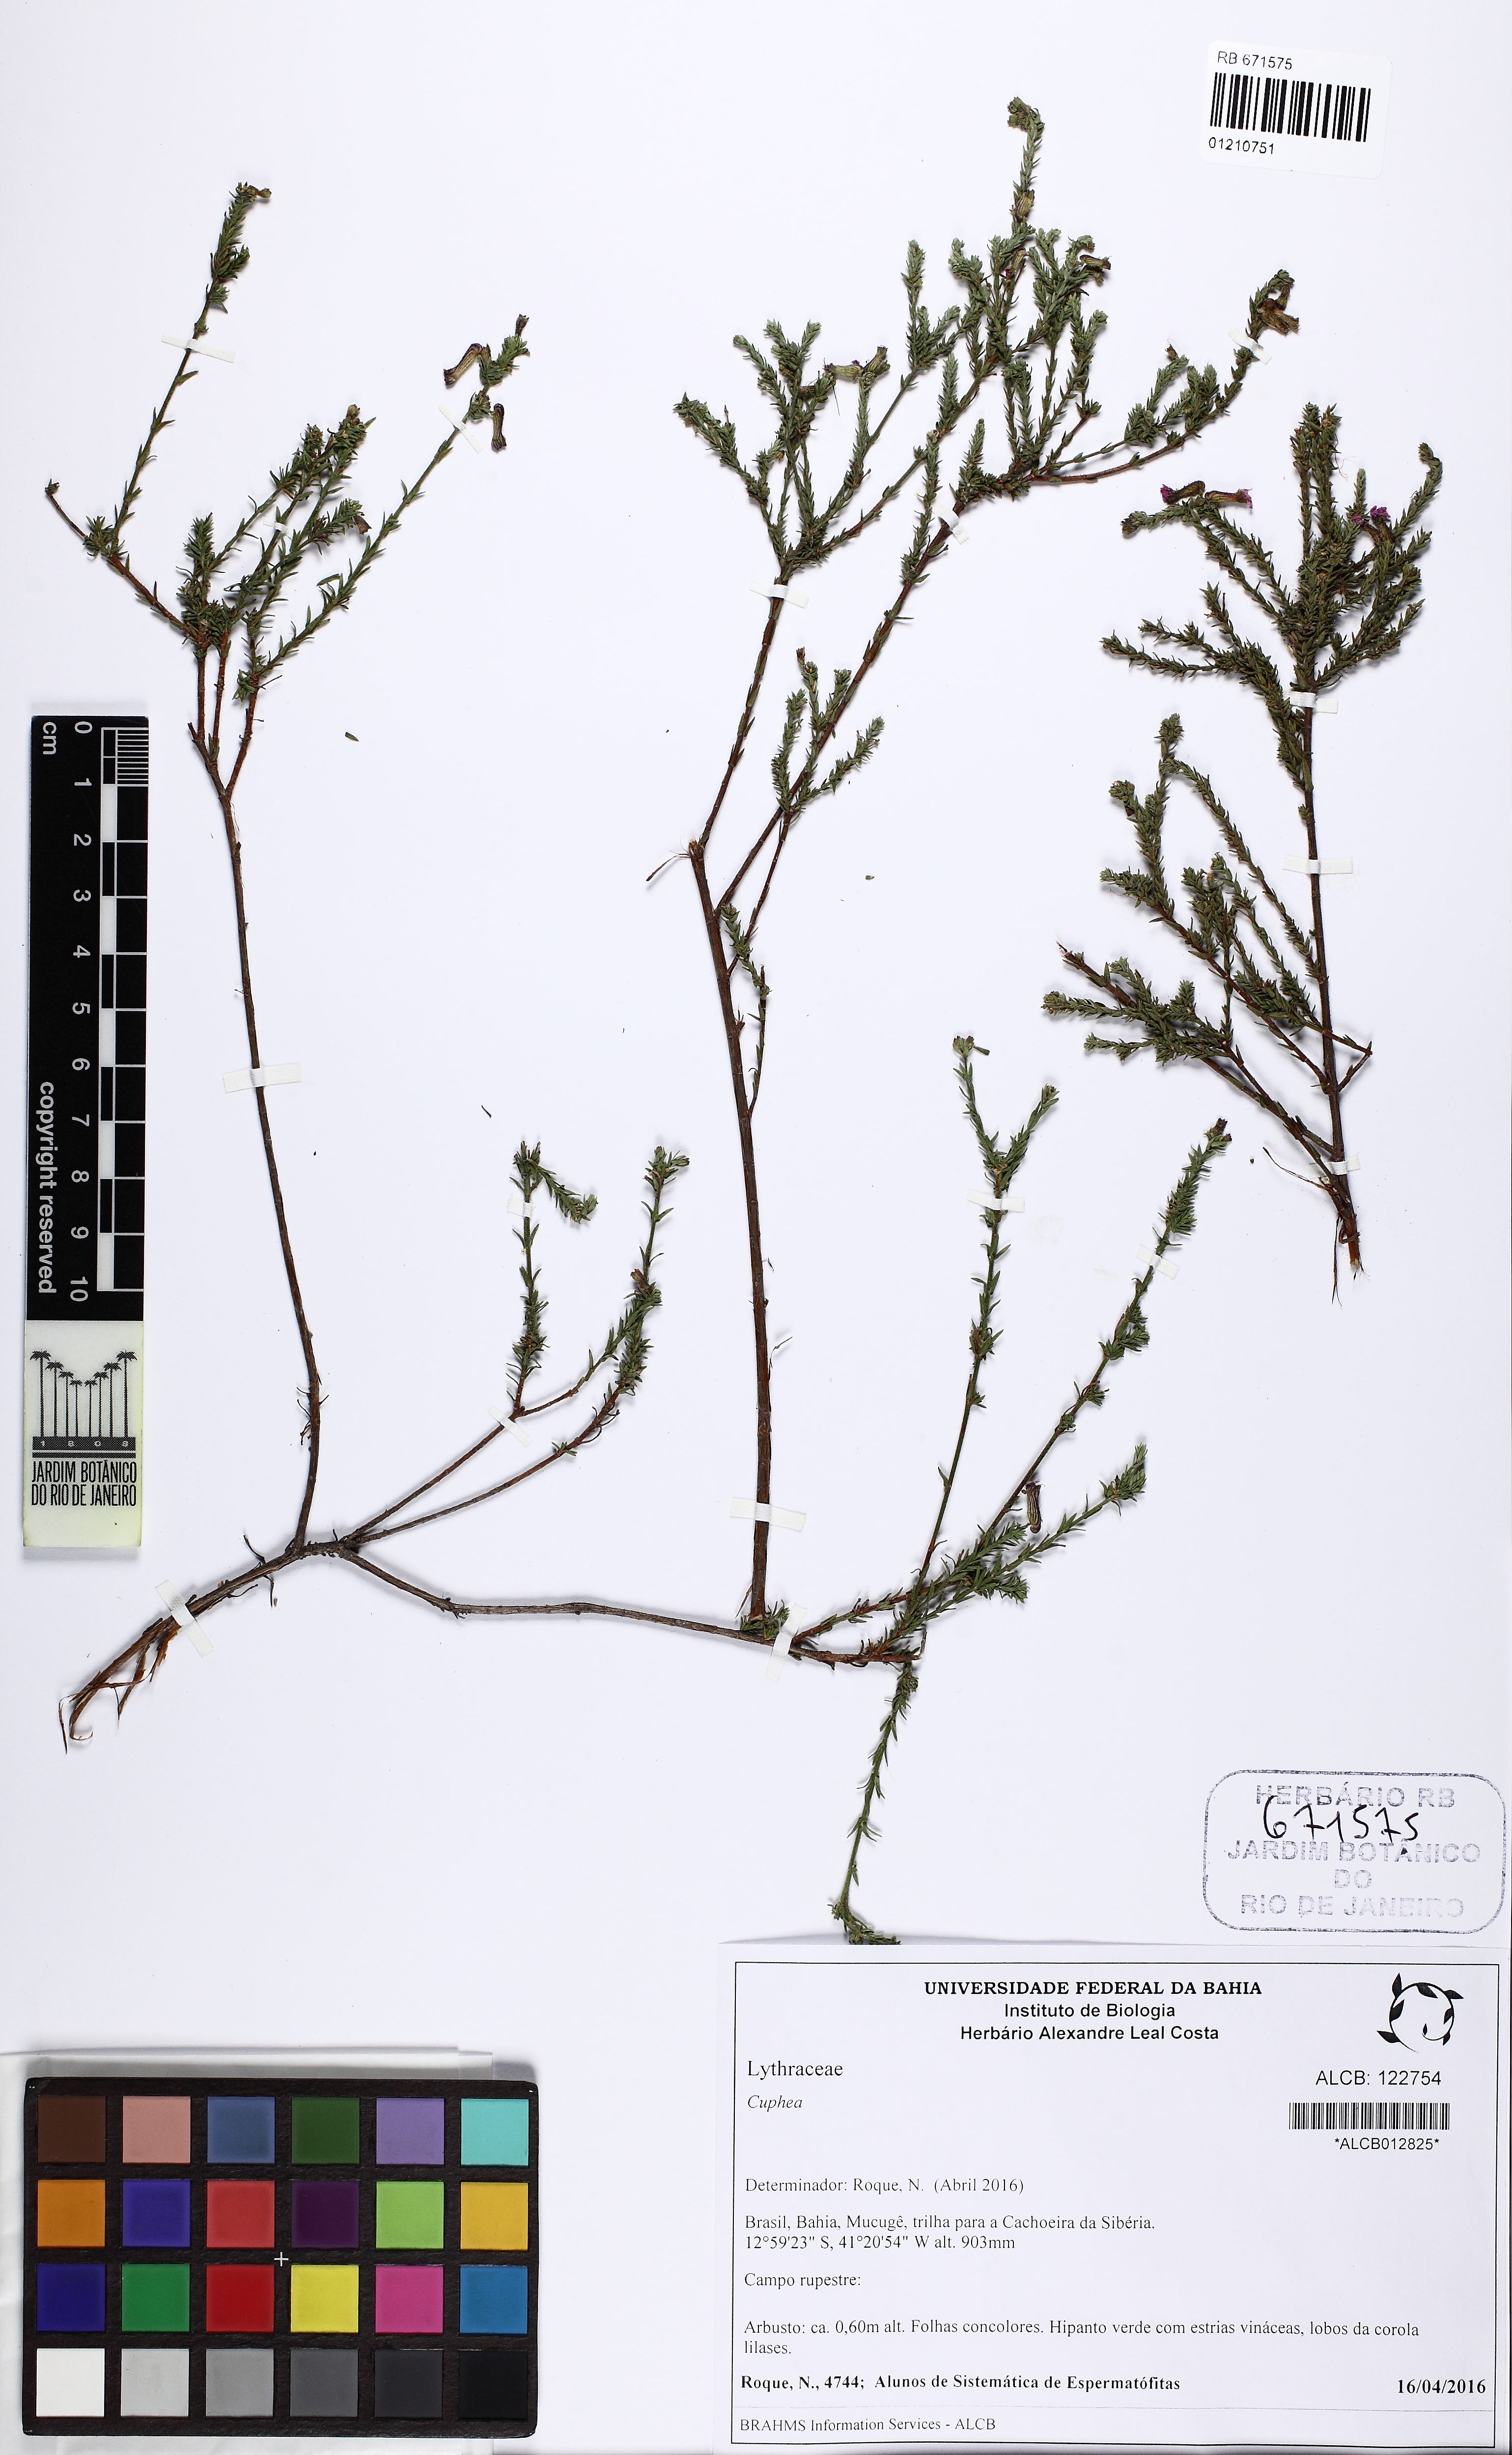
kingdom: Plantae
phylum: Tracheophyta
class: Magnoliopsida
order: Myrtales
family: Lythraceae
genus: Cuphea
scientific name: Cuphea
